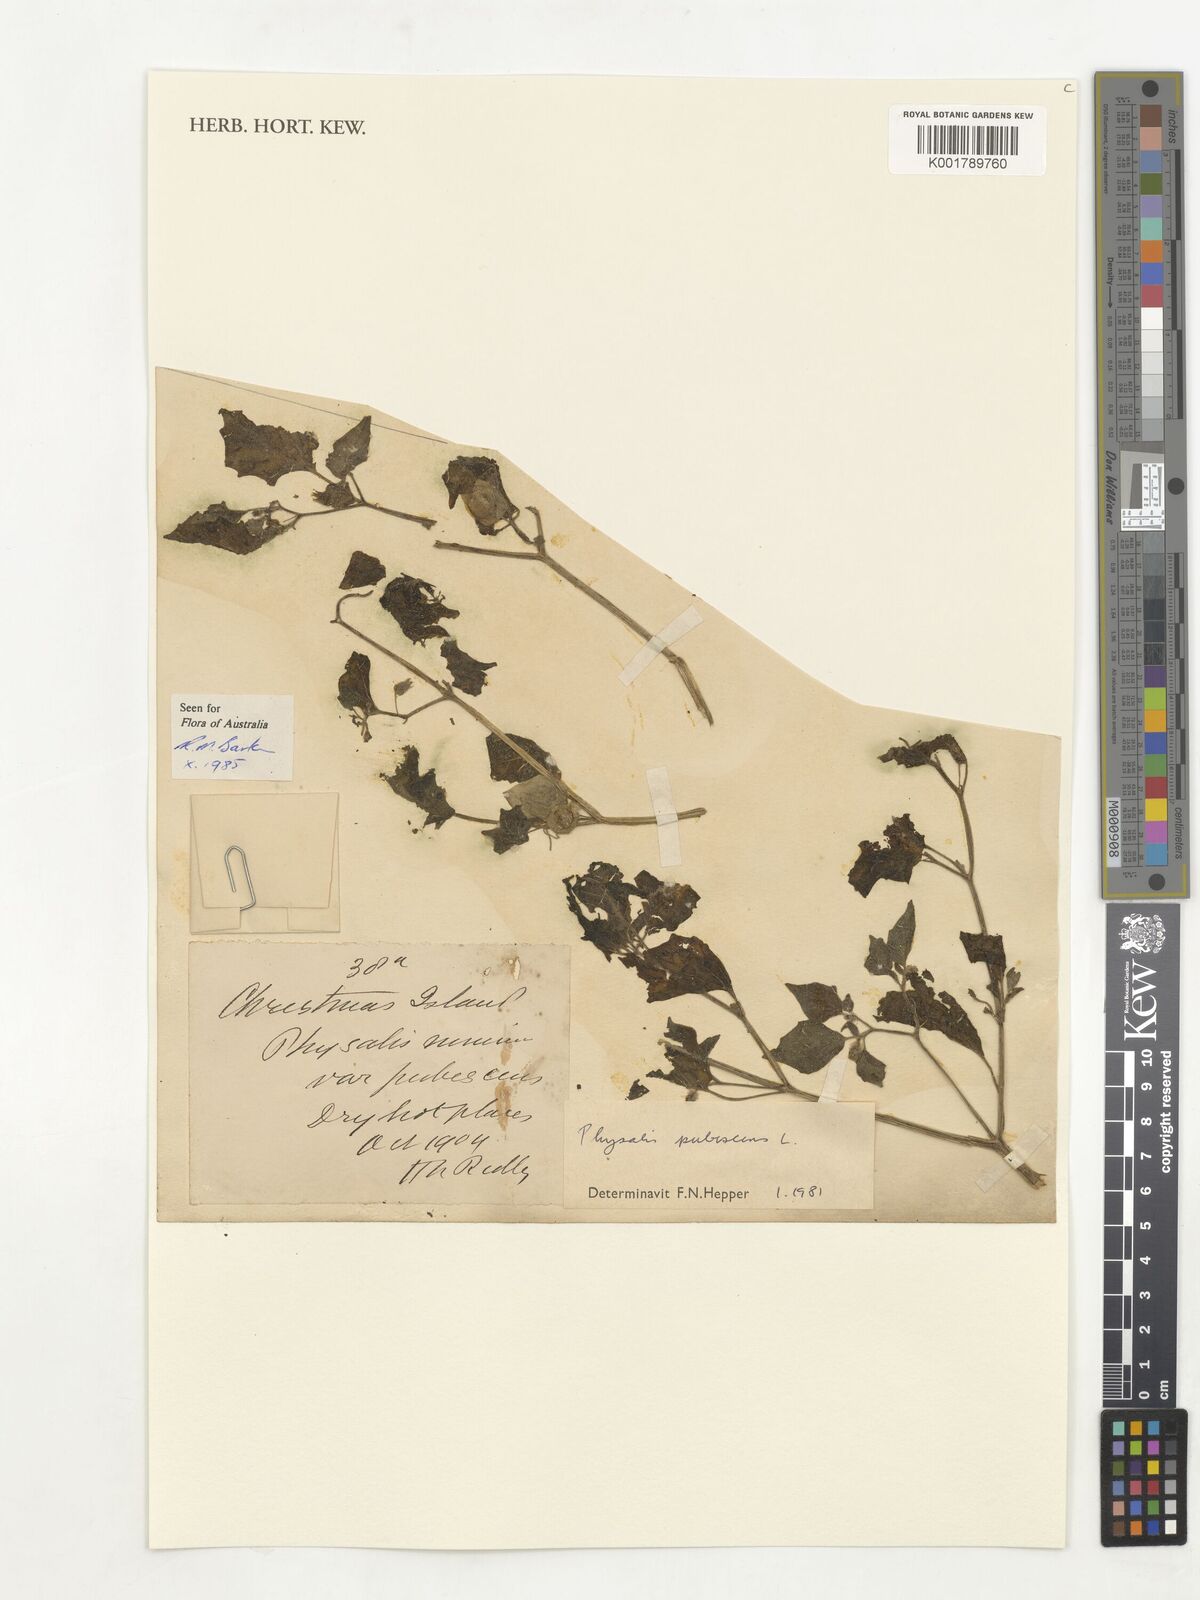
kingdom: Plantae
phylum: Tracheophyta
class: Magnoliopsida
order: Solanales
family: Solanaceae
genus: Physalis
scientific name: Physalis pubescens
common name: Downy ground-cherry
